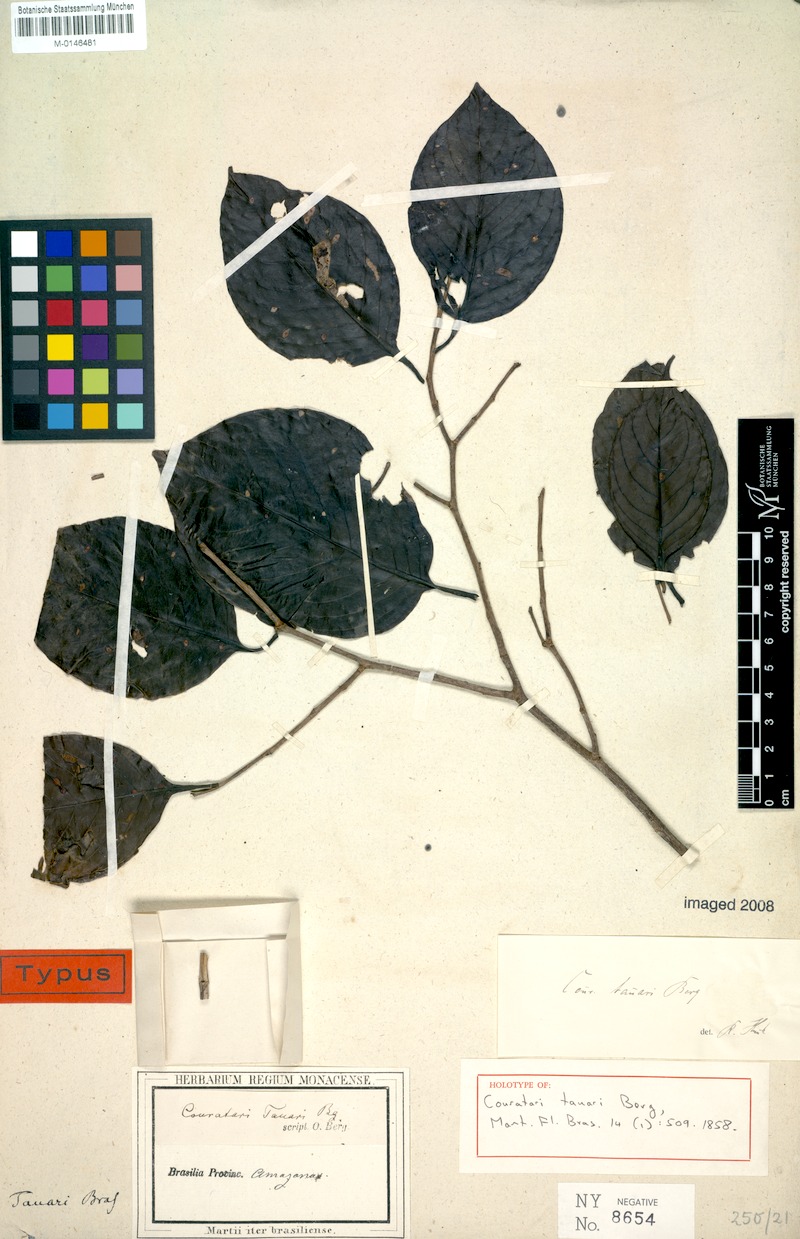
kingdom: Plantae
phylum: Tracheophyta
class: Magnoliopsida
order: Ericales
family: Lecythidaceae
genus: Couratari
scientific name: Couratari tauari
